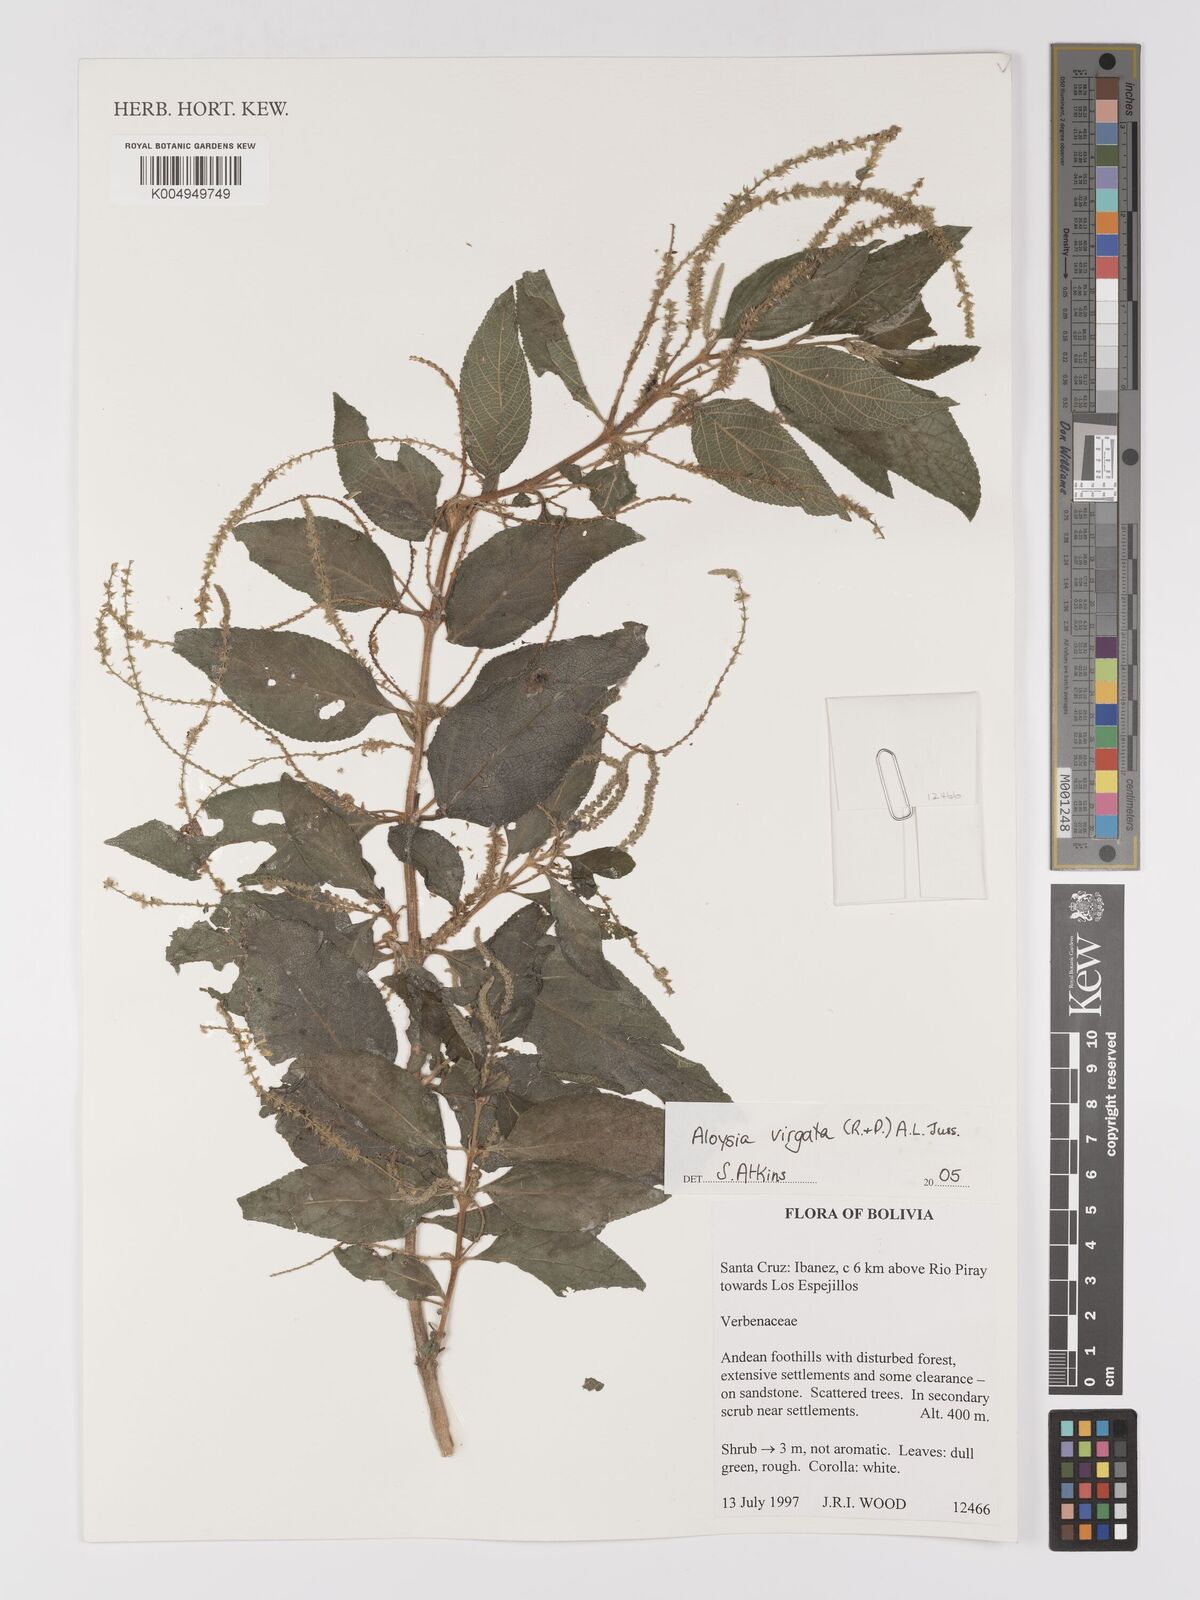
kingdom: Plantae
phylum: Tracheophyta
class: Magnoliopsida
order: Lamiales
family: Verbenaceae
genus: Aloysia
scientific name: Aloysia virgata
